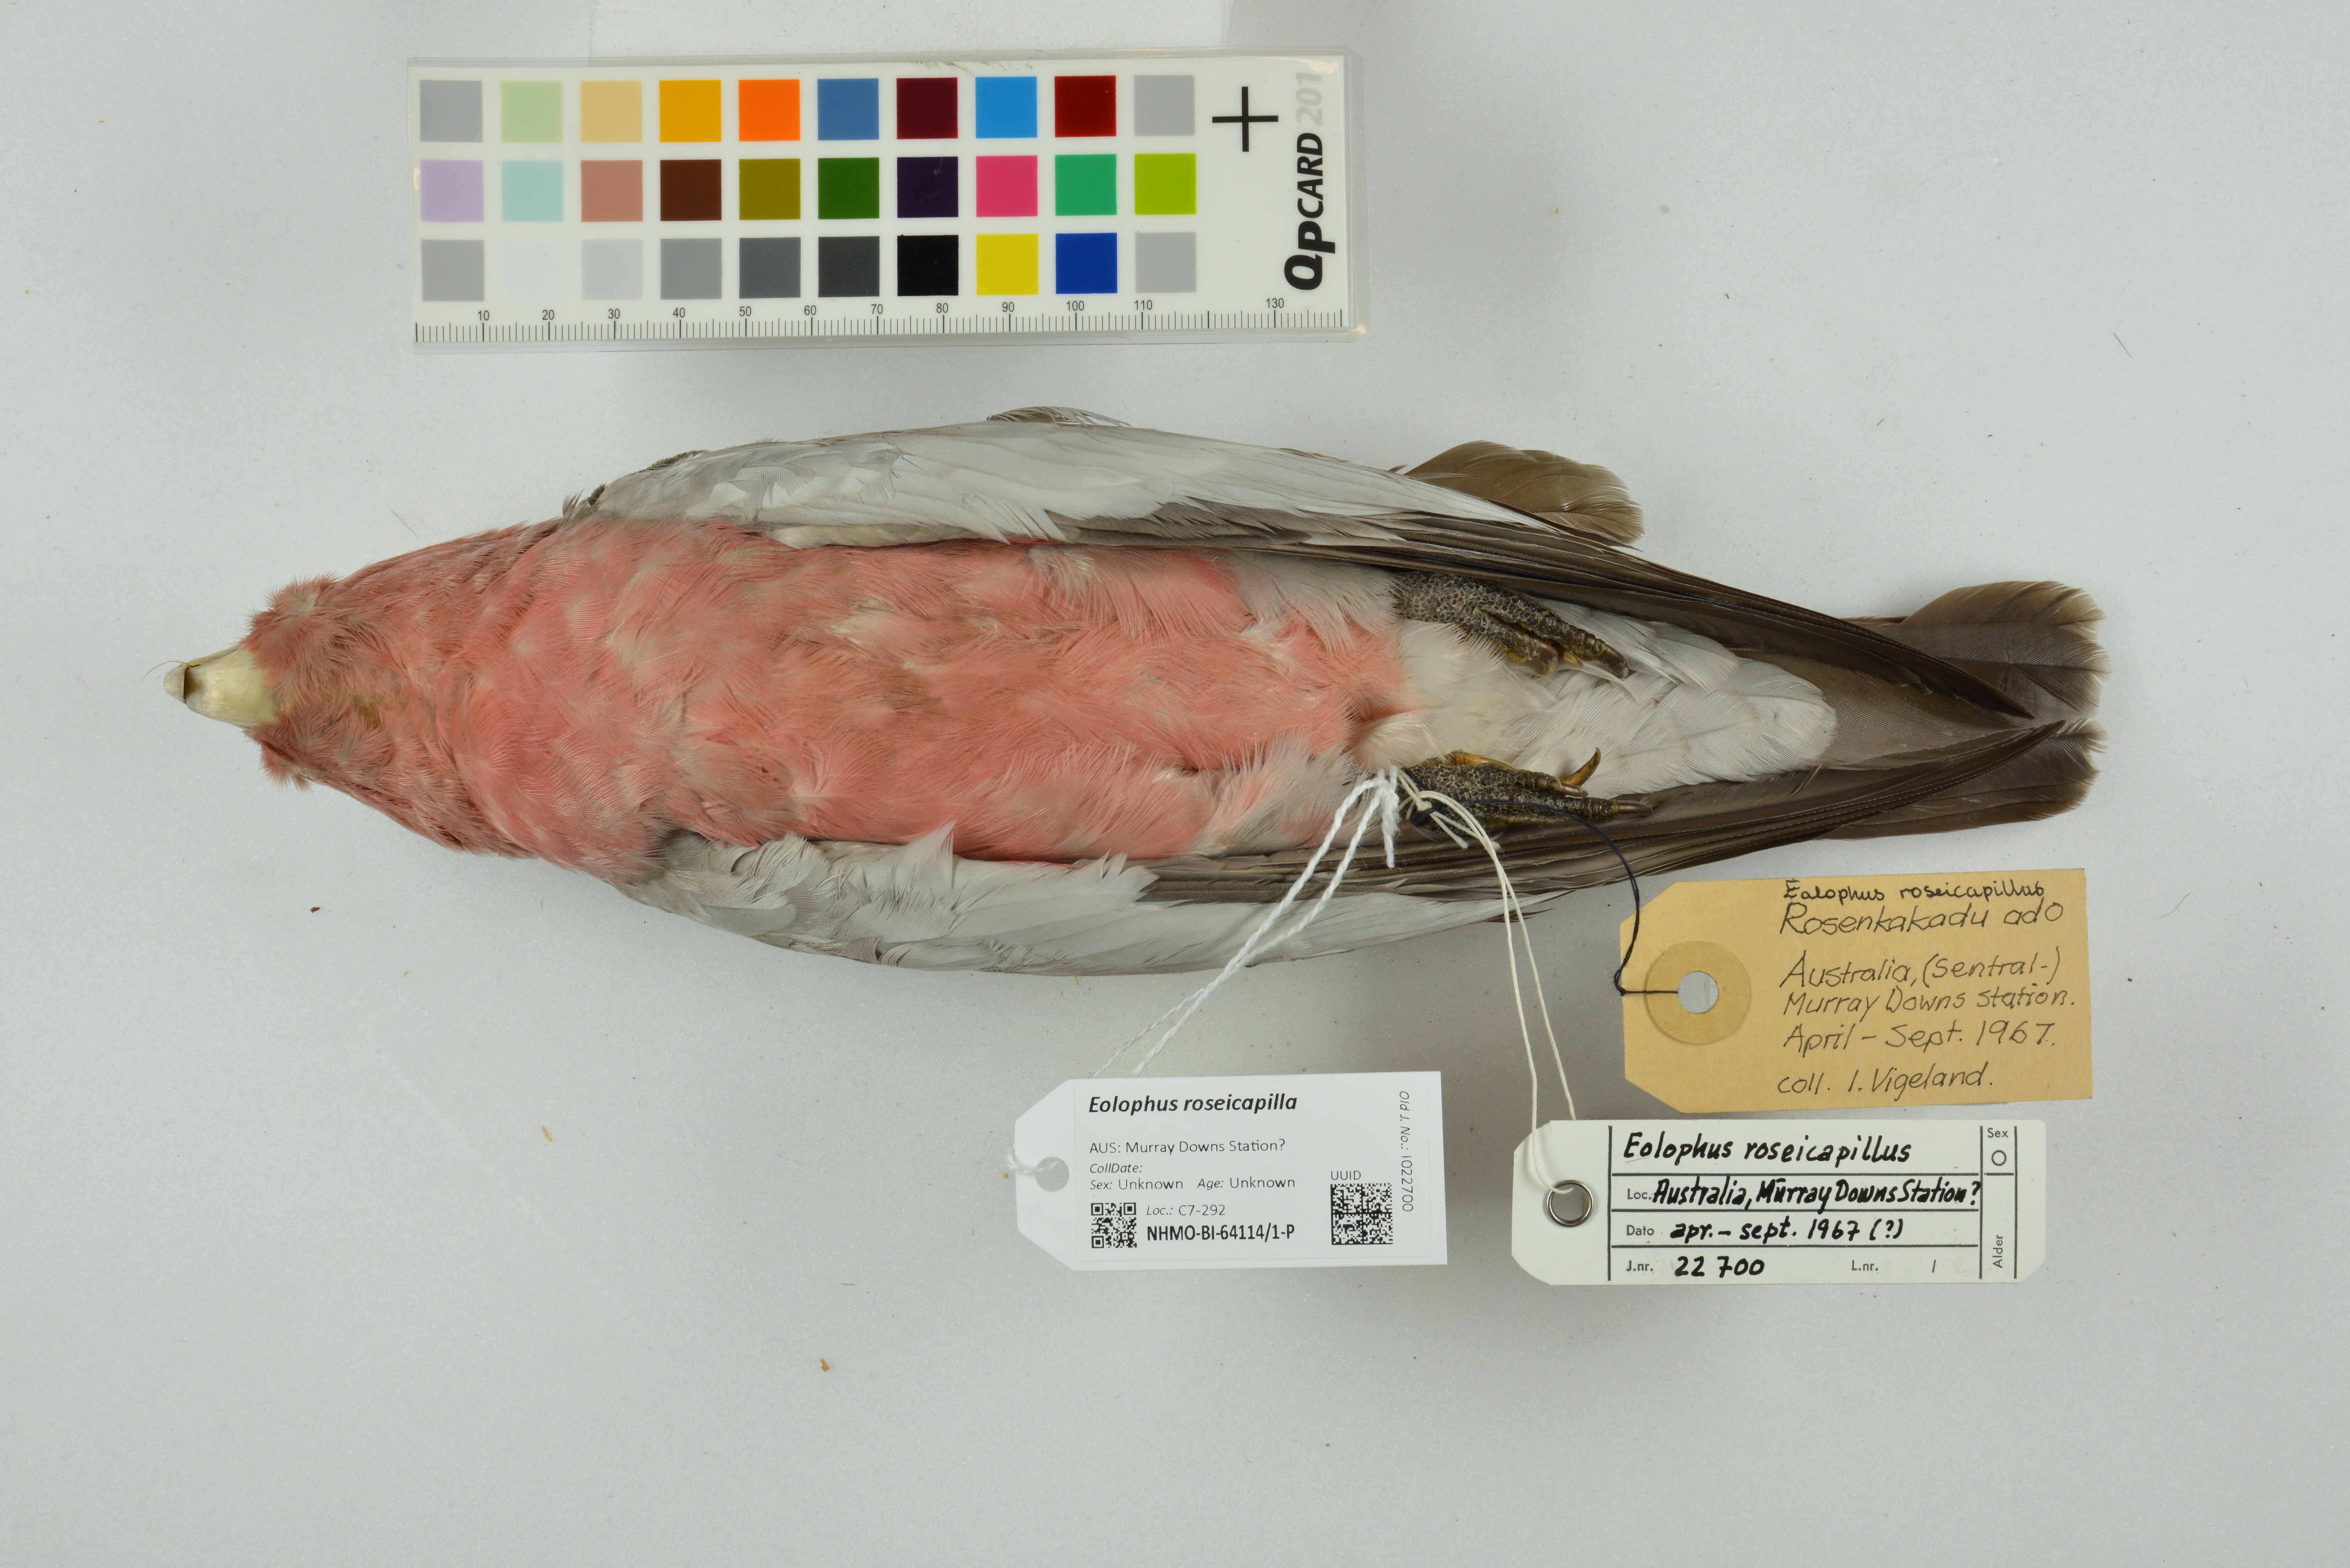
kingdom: Animalia
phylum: Chordata
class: Aves
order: Psittaciformes
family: Psittacidae
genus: Eolophus
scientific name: Eolophus roseicapilla
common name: Galah
